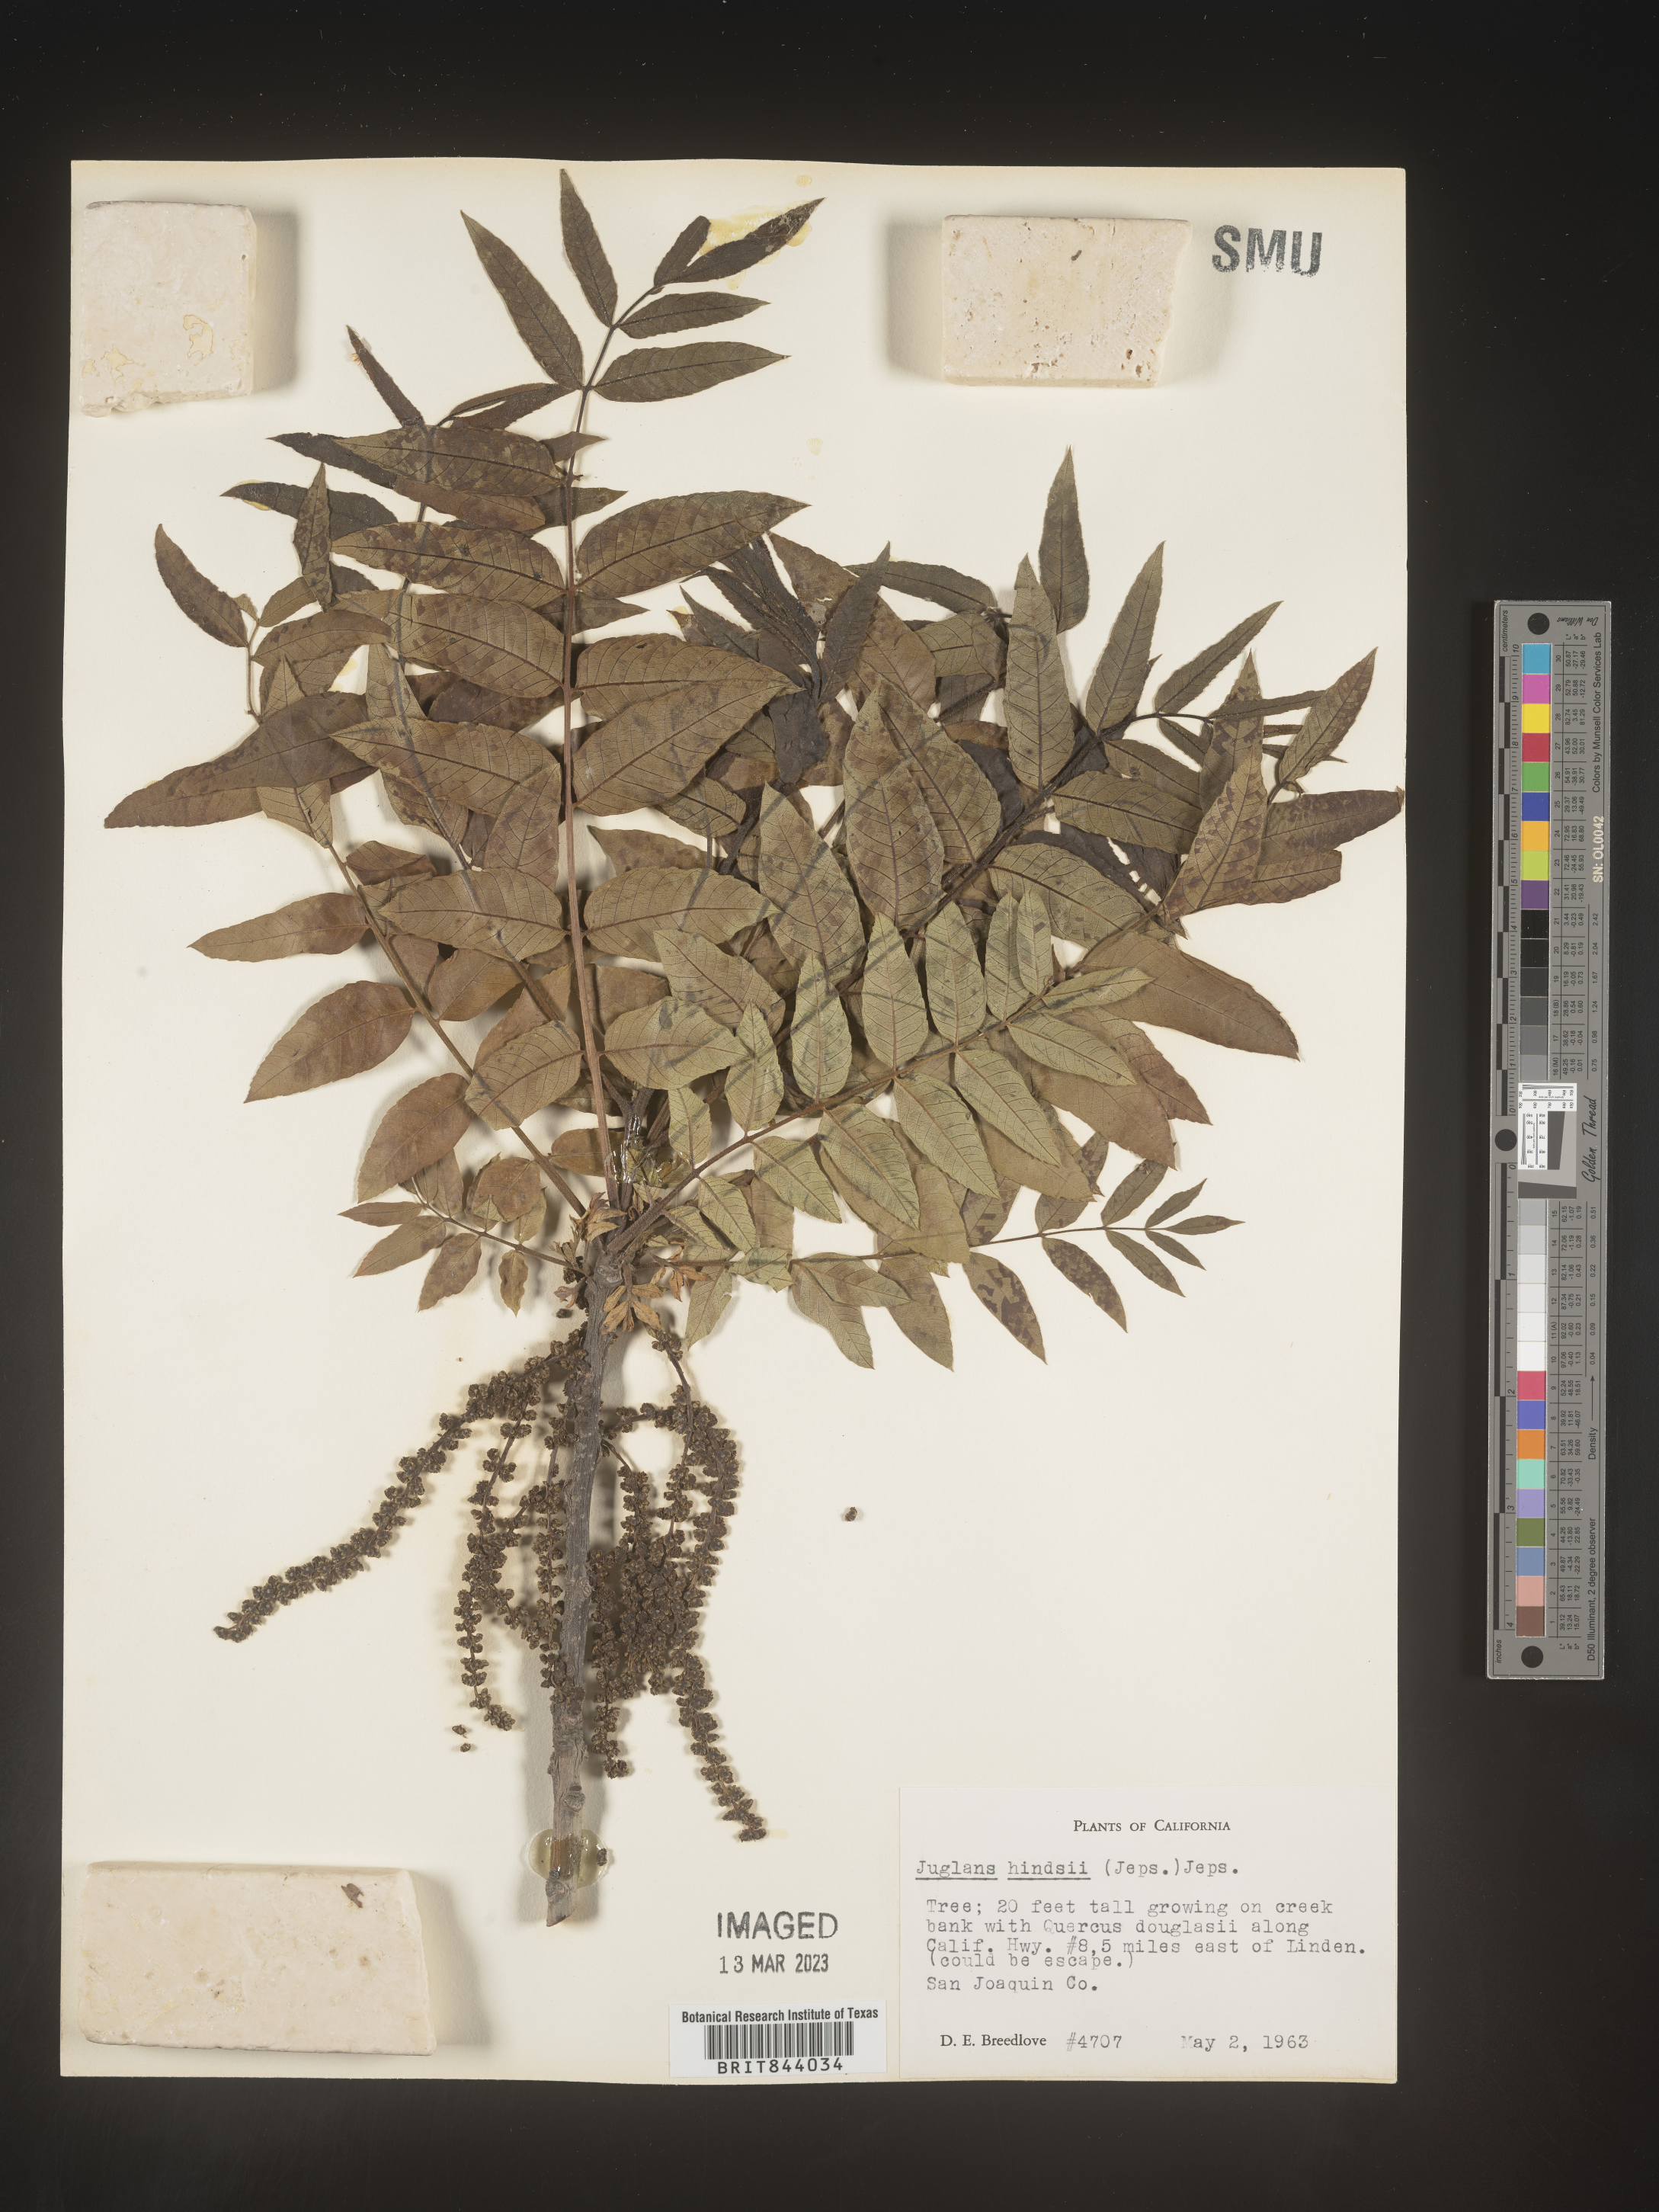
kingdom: Plantae
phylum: Tracheophyta
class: Magnoliopsida
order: Fagales
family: Juglandaceae
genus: Juglans
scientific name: Juglans major
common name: Arizona walnut
